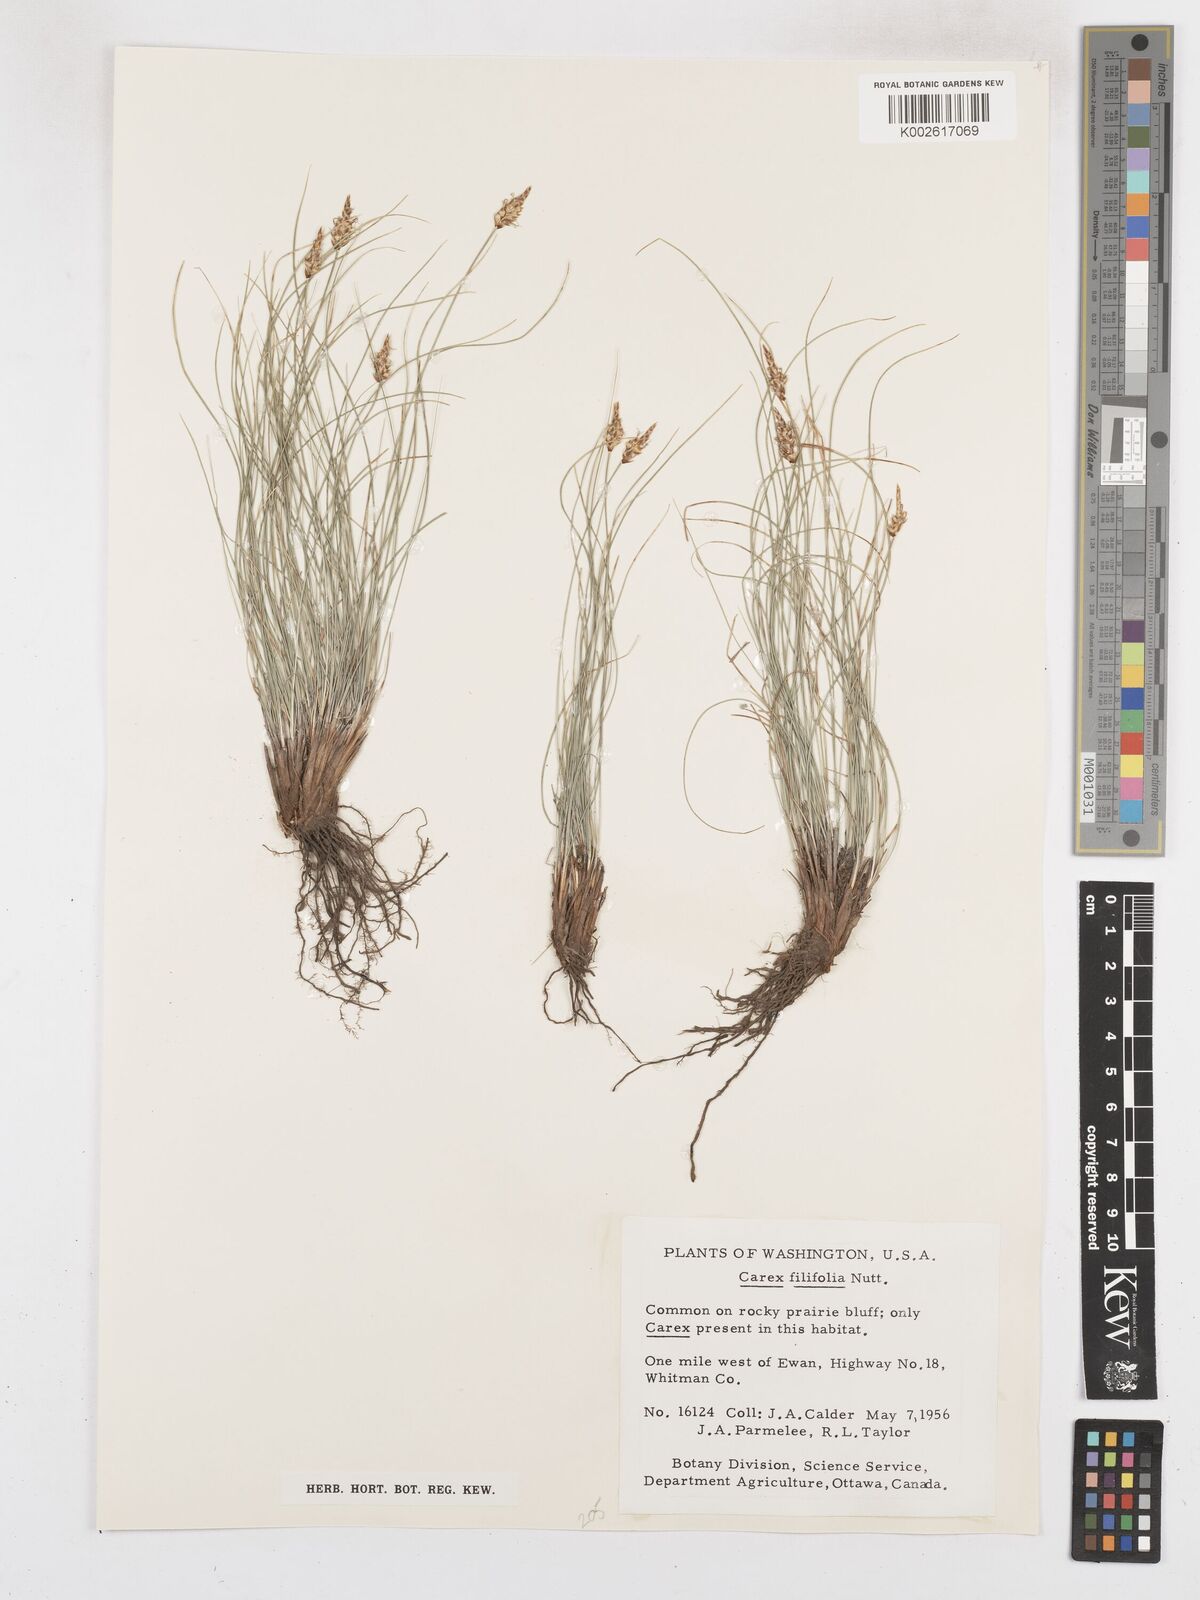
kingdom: Plantae
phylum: Tracheophyta
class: Liliopsida
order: Poales
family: Cyperaceae
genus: Carex
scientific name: Carex filifolia
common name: Threadleaf sedge
